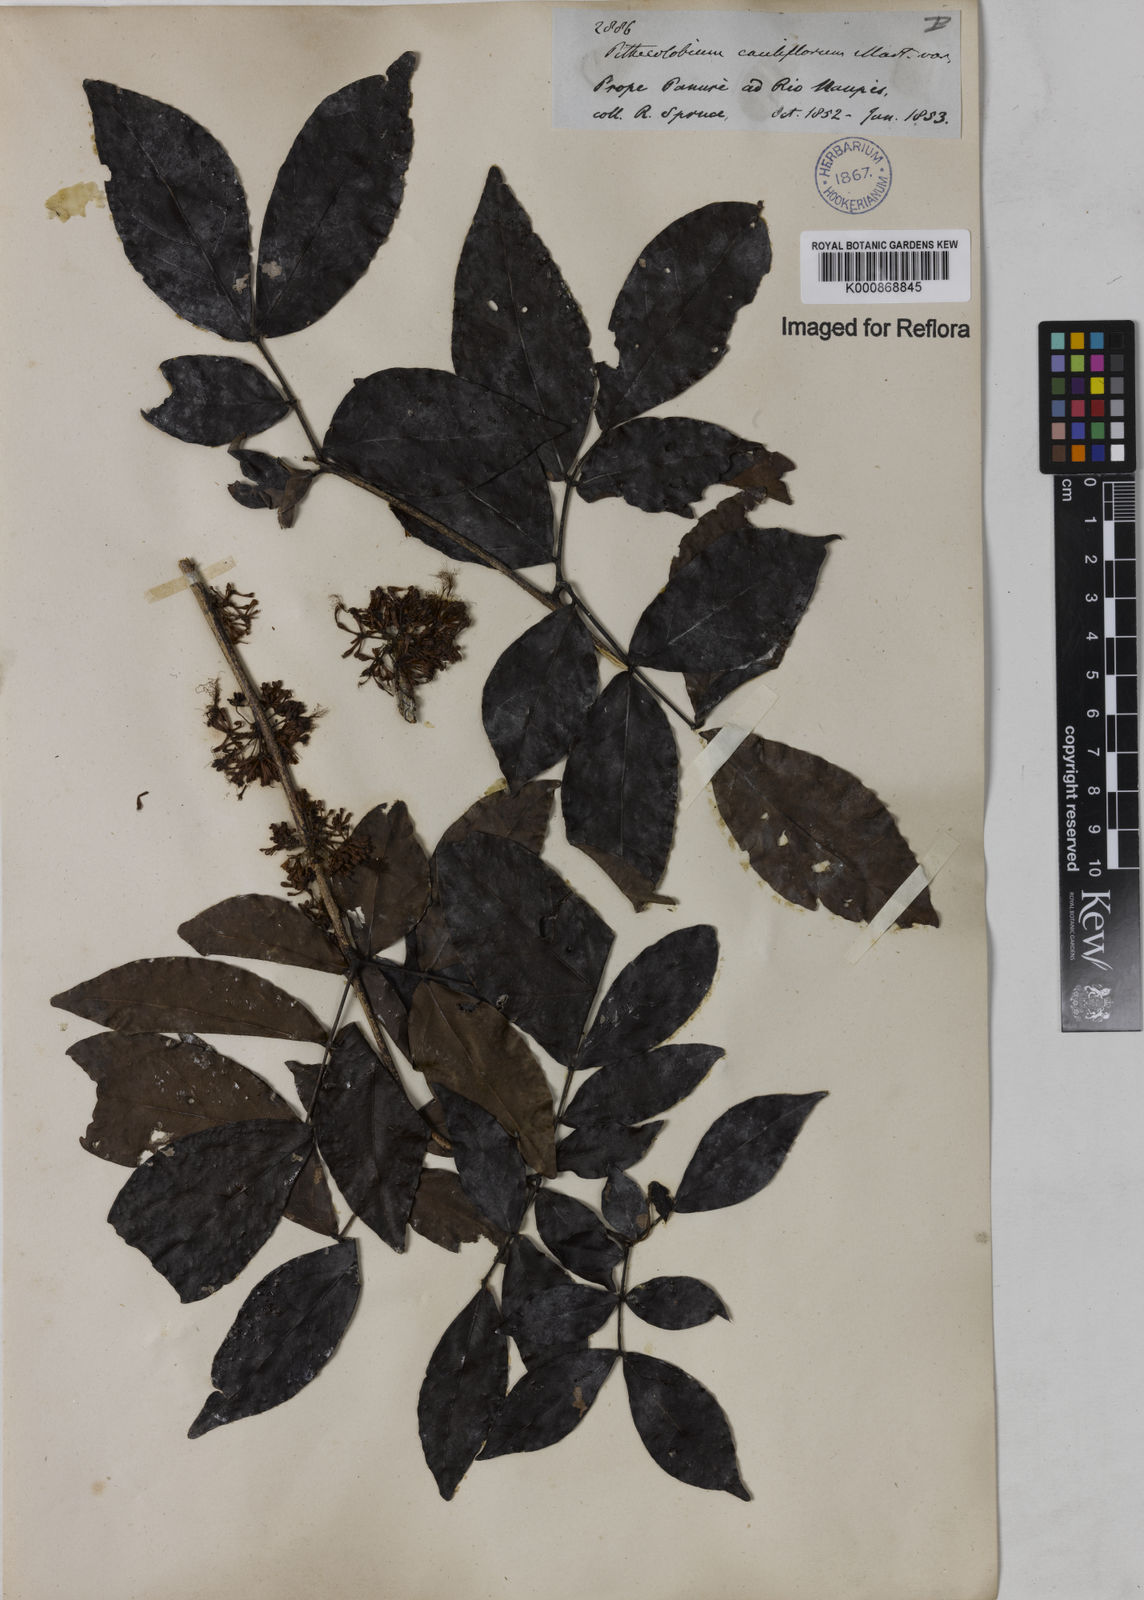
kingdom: Plantae
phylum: Tracheophyta
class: Magnoliopsida
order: Fabales
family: Fabaceae
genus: Zygia
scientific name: Zygia
